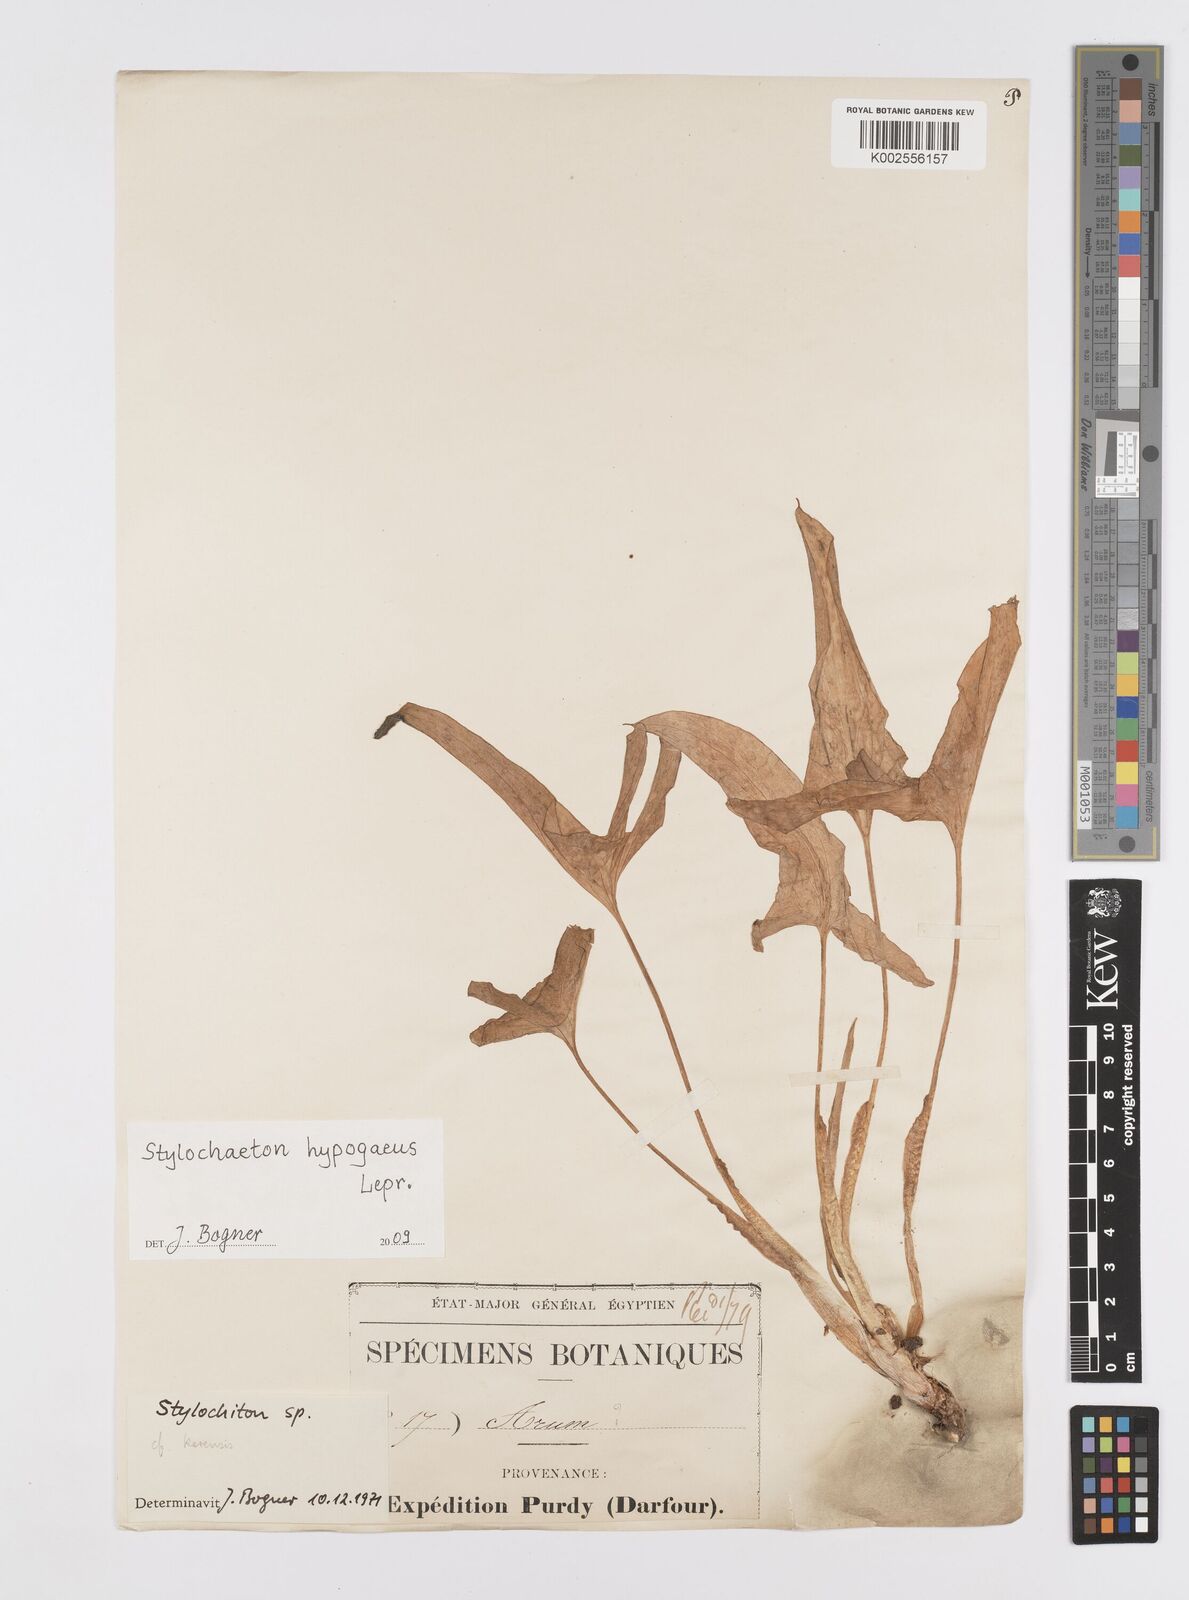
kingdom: Plantae
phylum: Tracheophyta
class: Liliopsida
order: Alismatales
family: Araceae
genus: Stylochaeton
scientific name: Stylochaeton hypogeum
